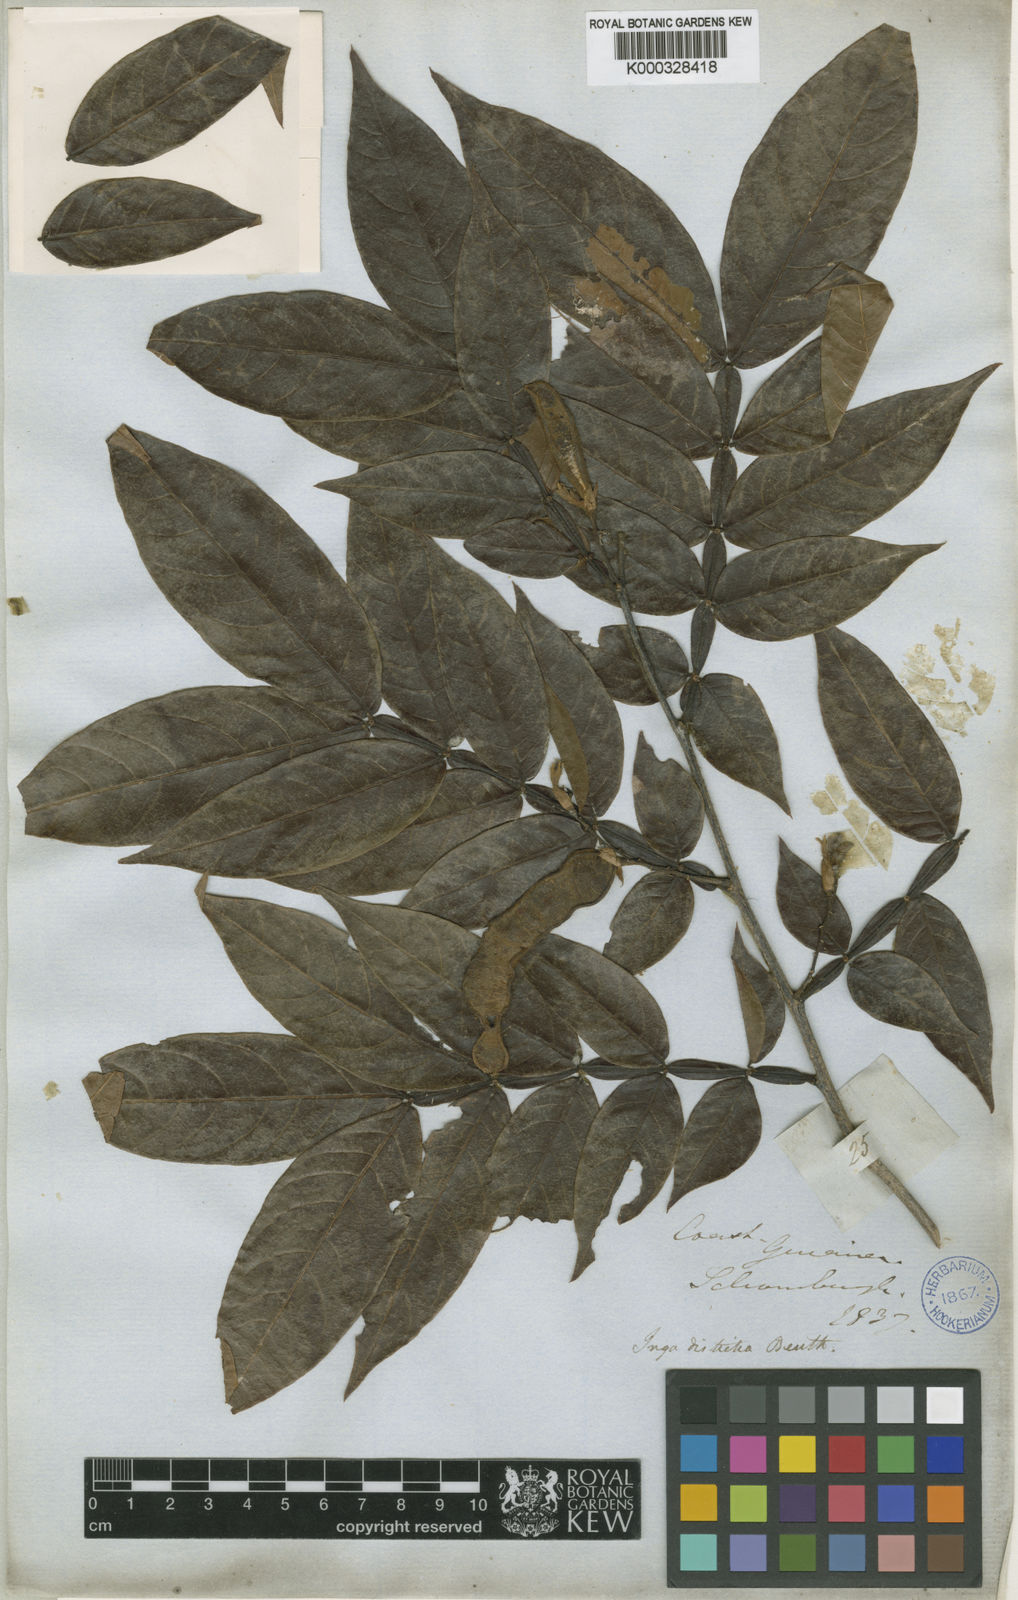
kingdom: Plantae
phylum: Tracheophyta
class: Magnoliopsida
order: Fabales
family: Fabaceae
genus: Inga
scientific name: Inga disticha
